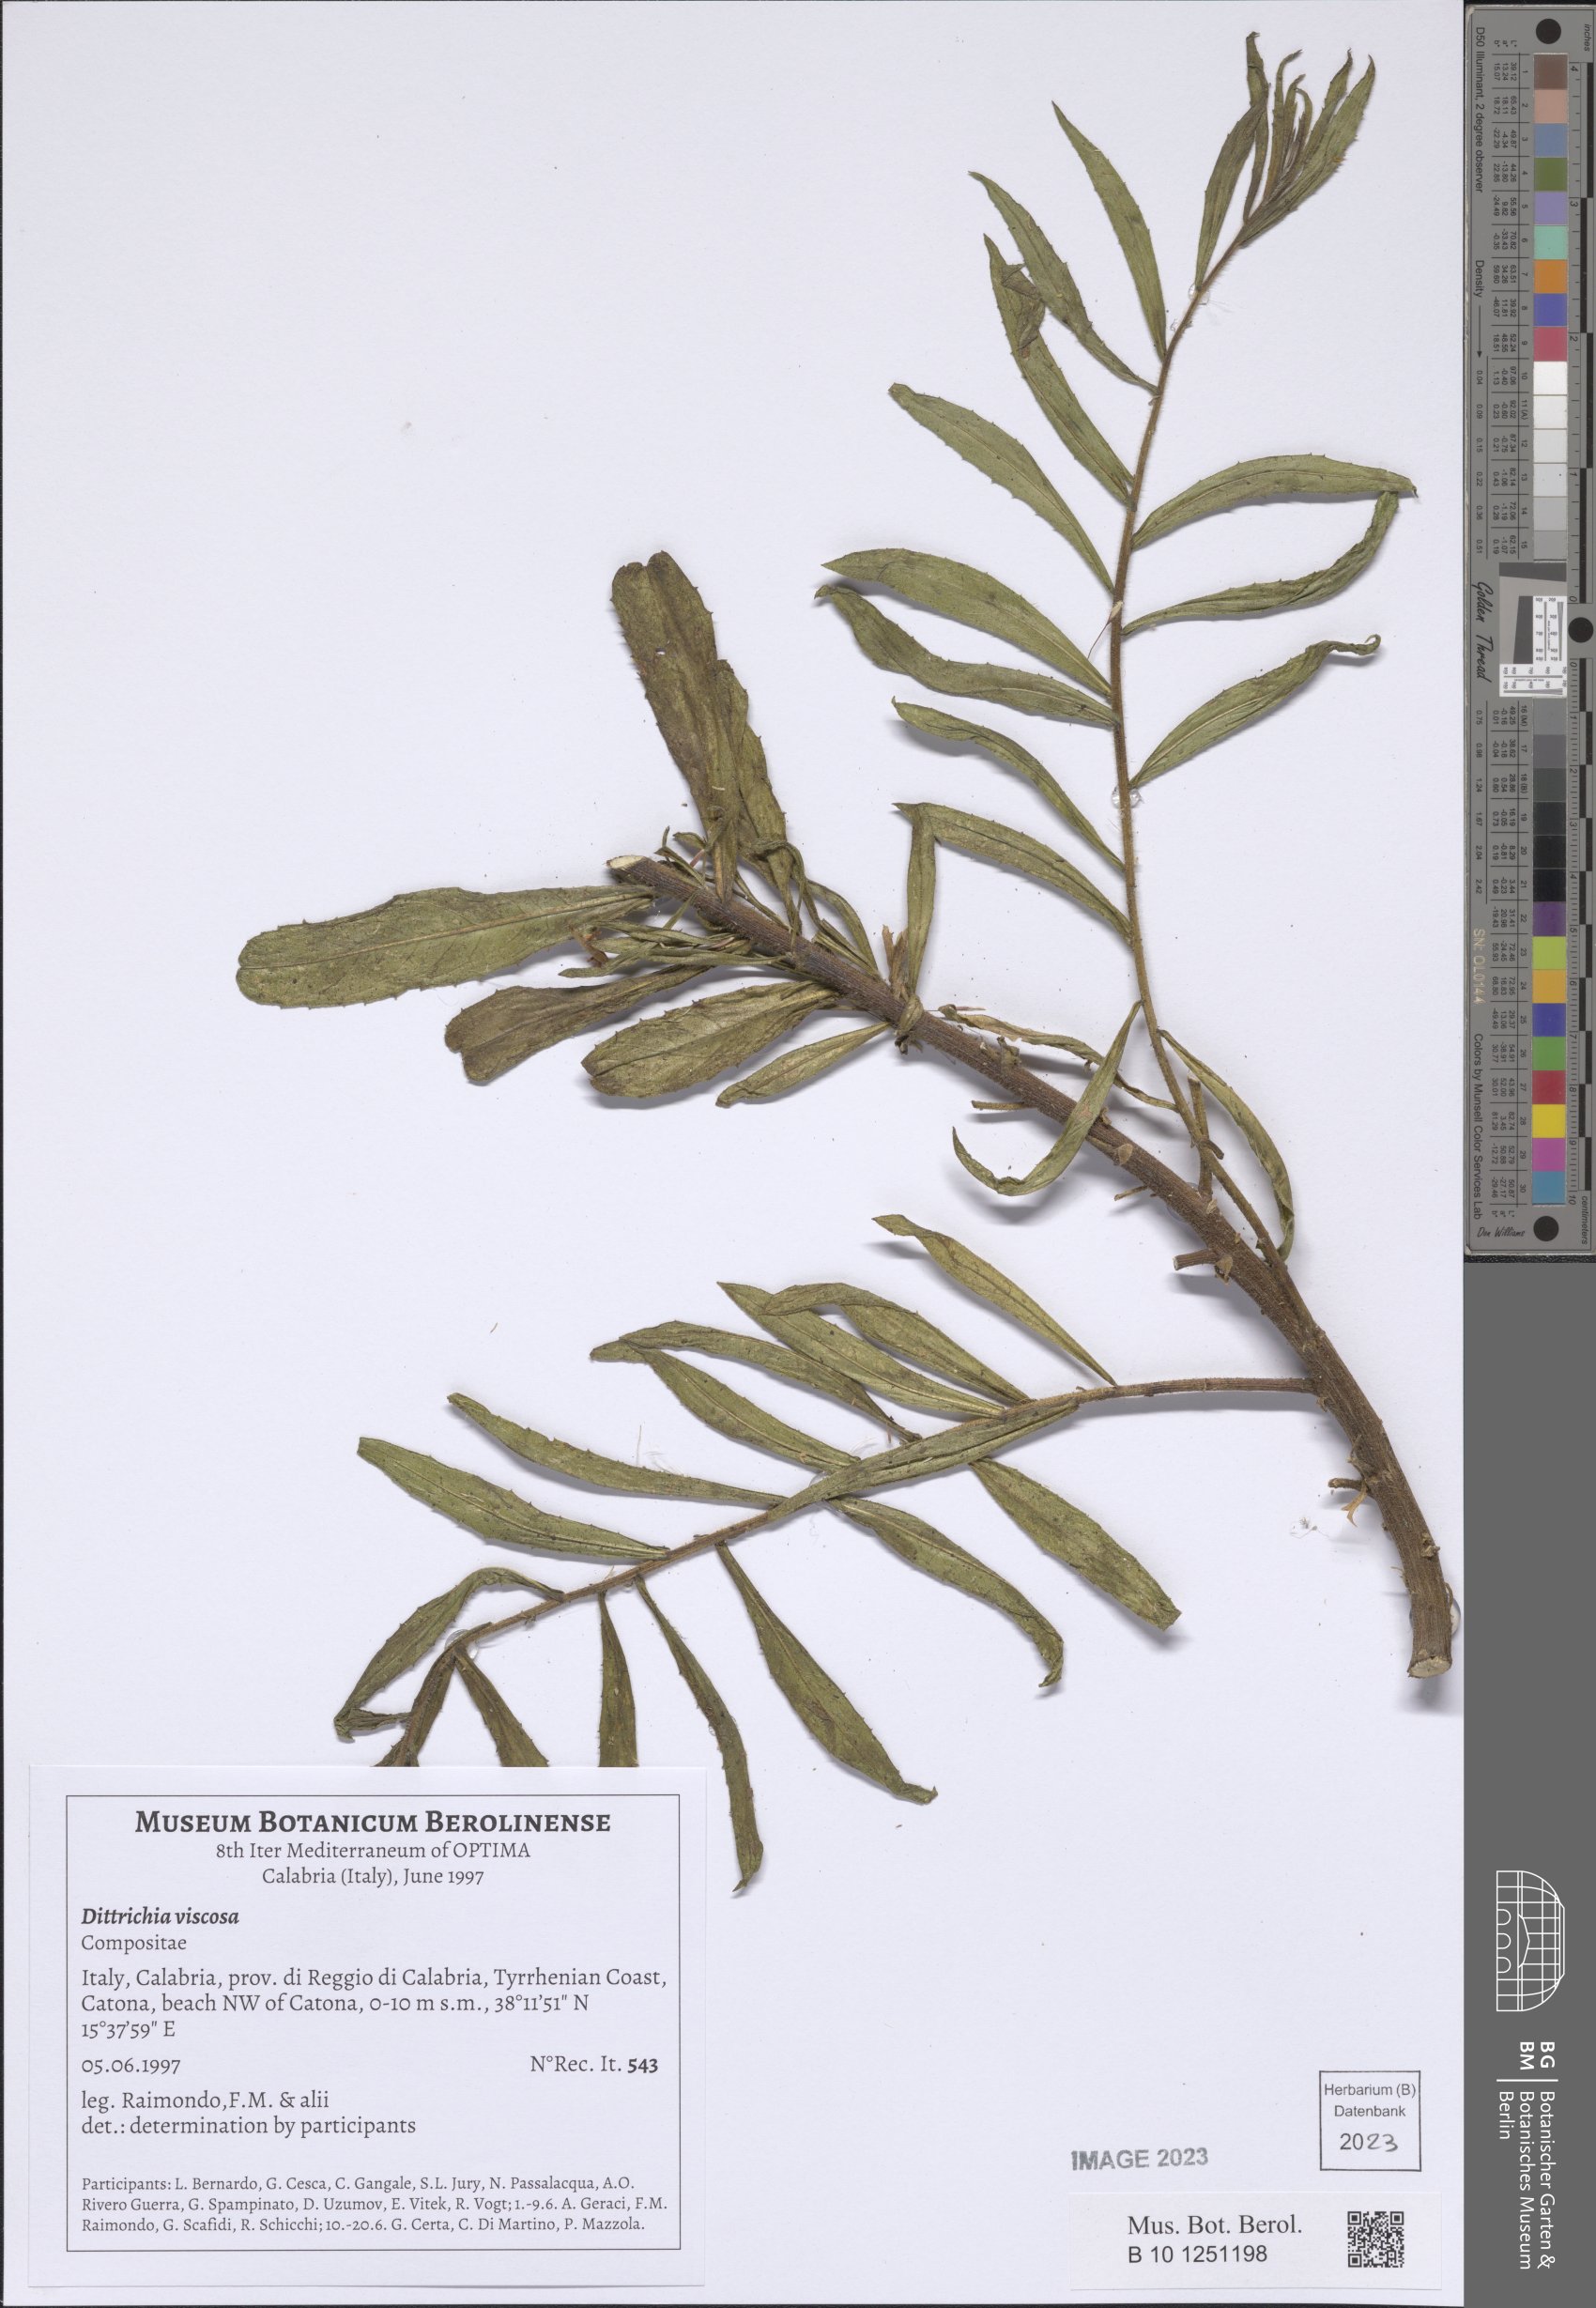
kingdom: Plantae
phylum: Tracheophyta
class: Magnoliopsida
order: Asterales
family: Asteraceae
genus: Dittrichia
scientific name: Dittrichia viscosa
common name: Woody fleabane
